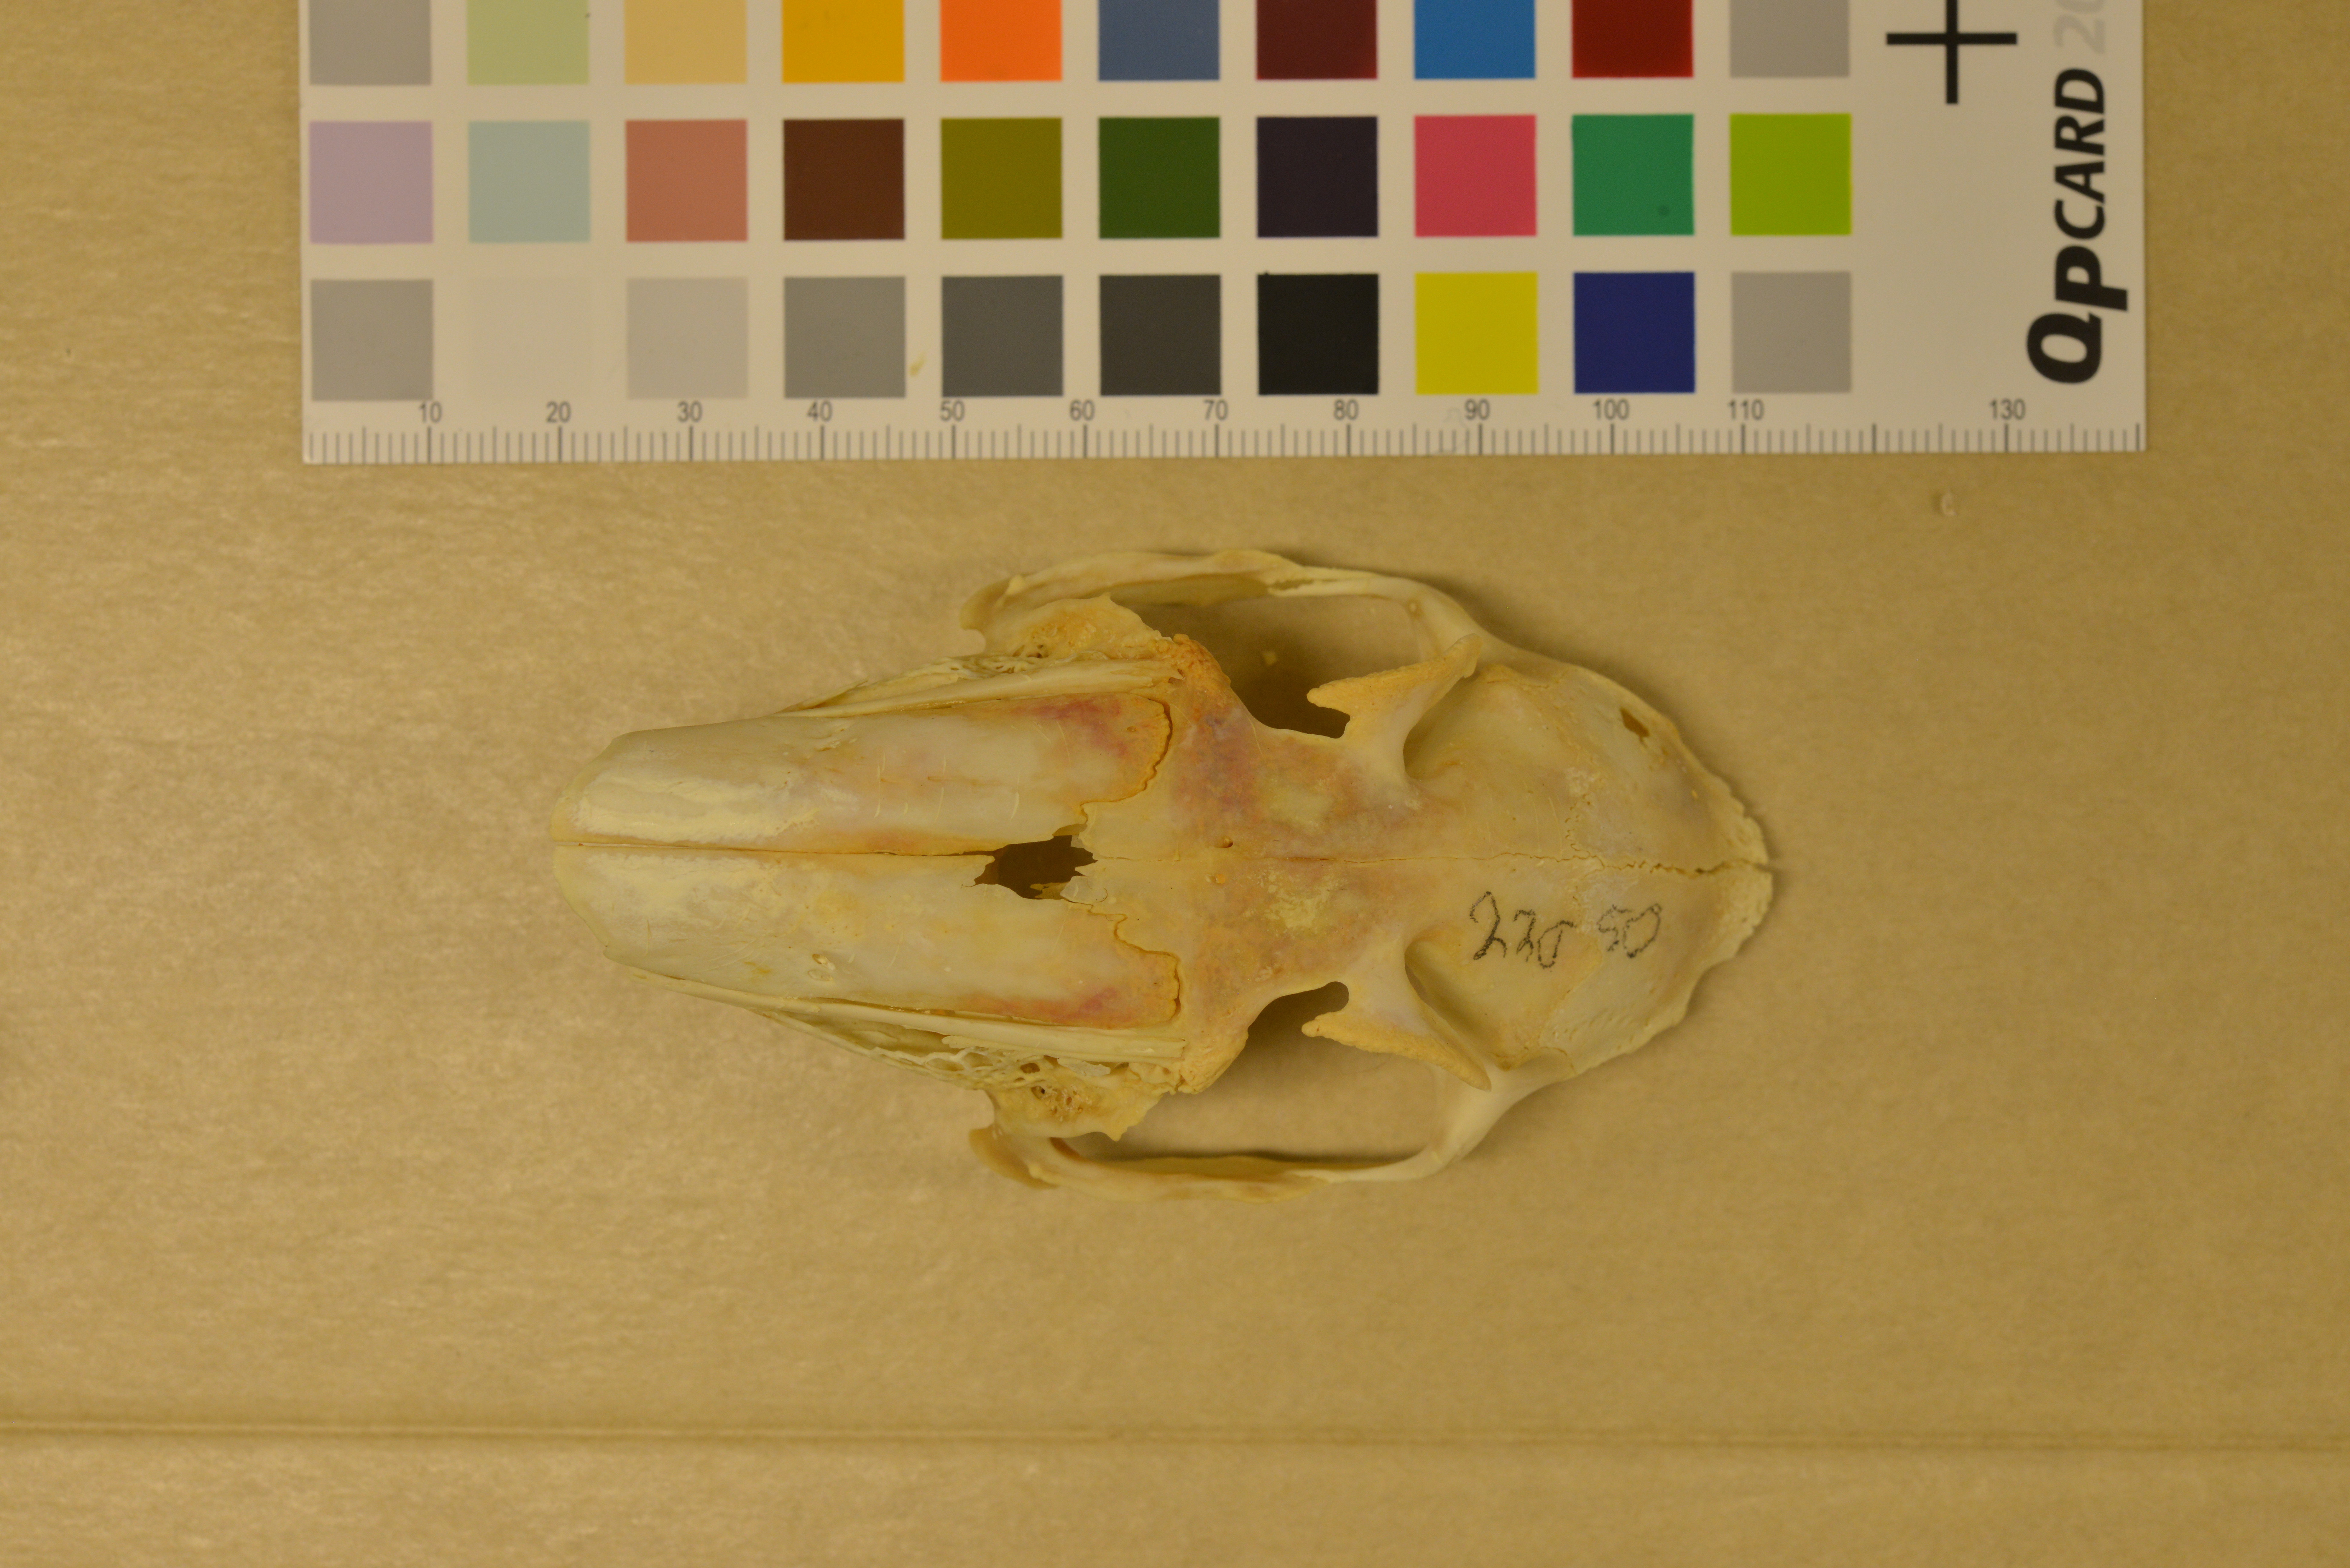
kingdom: Animalia
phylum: Chordata
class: Mammalia
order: Lagomorpha
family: Leporidae
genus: Lepus
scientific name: Lepus europaeus
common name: European hare
